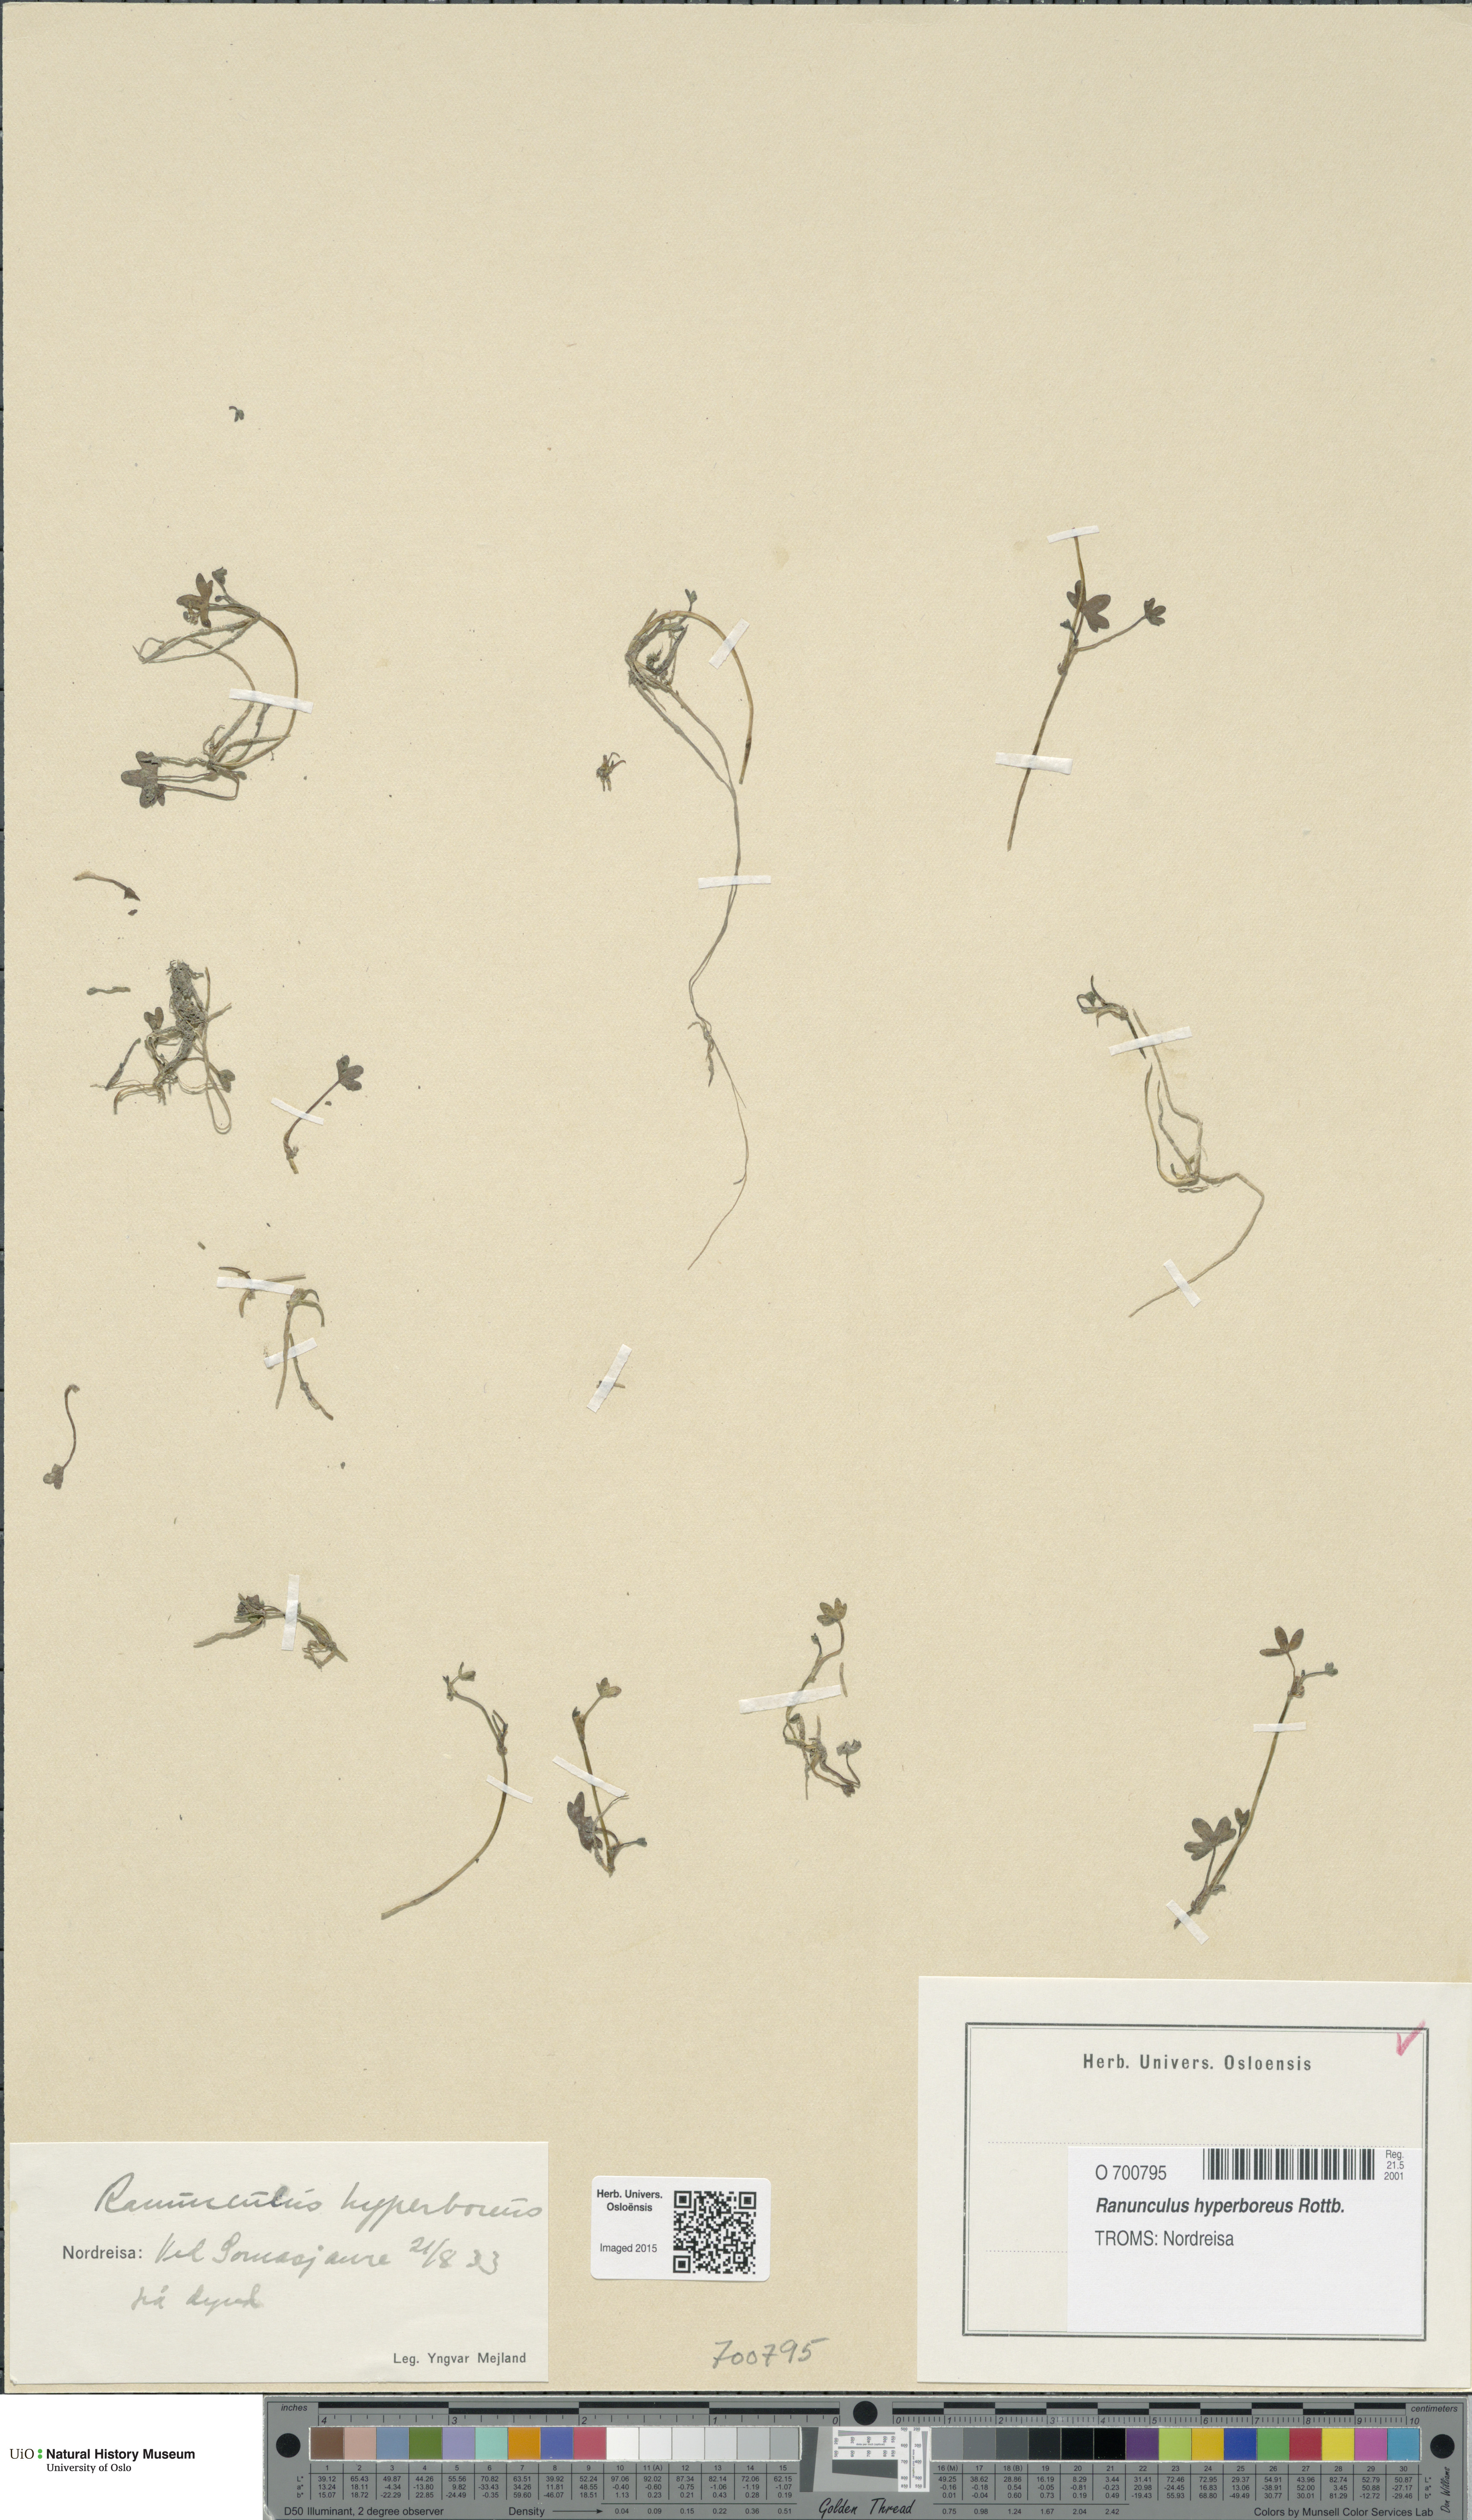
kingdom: Plantae
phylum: Tracheophyta
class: Magnoliopsida
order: Ranunculales
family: Ranunculaceae
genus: Ranunculus
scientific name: Ranunculus hyperboreus
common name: Arctic buttercup
